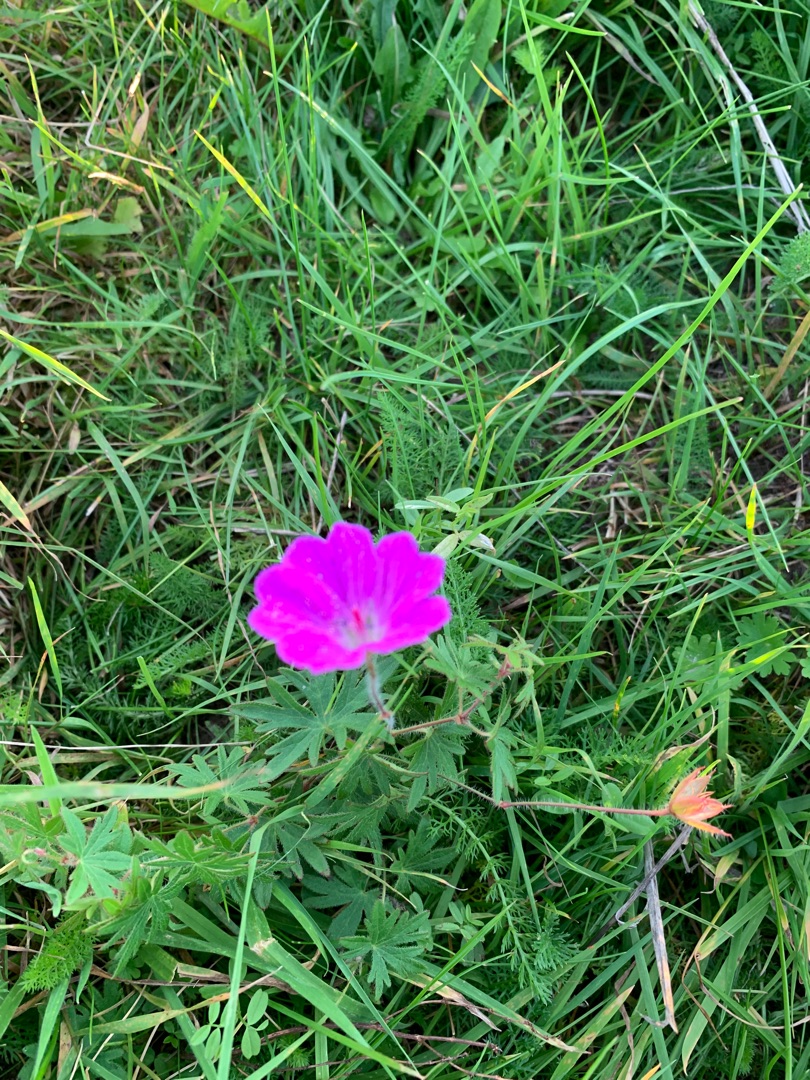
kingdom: Plantae
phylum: Tracheophyta
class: Magnoliopsida
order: Geraniales
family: Geraniaceae
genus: Geranium
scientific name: Geranium sanguineum
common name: Blodrød storkenæb
